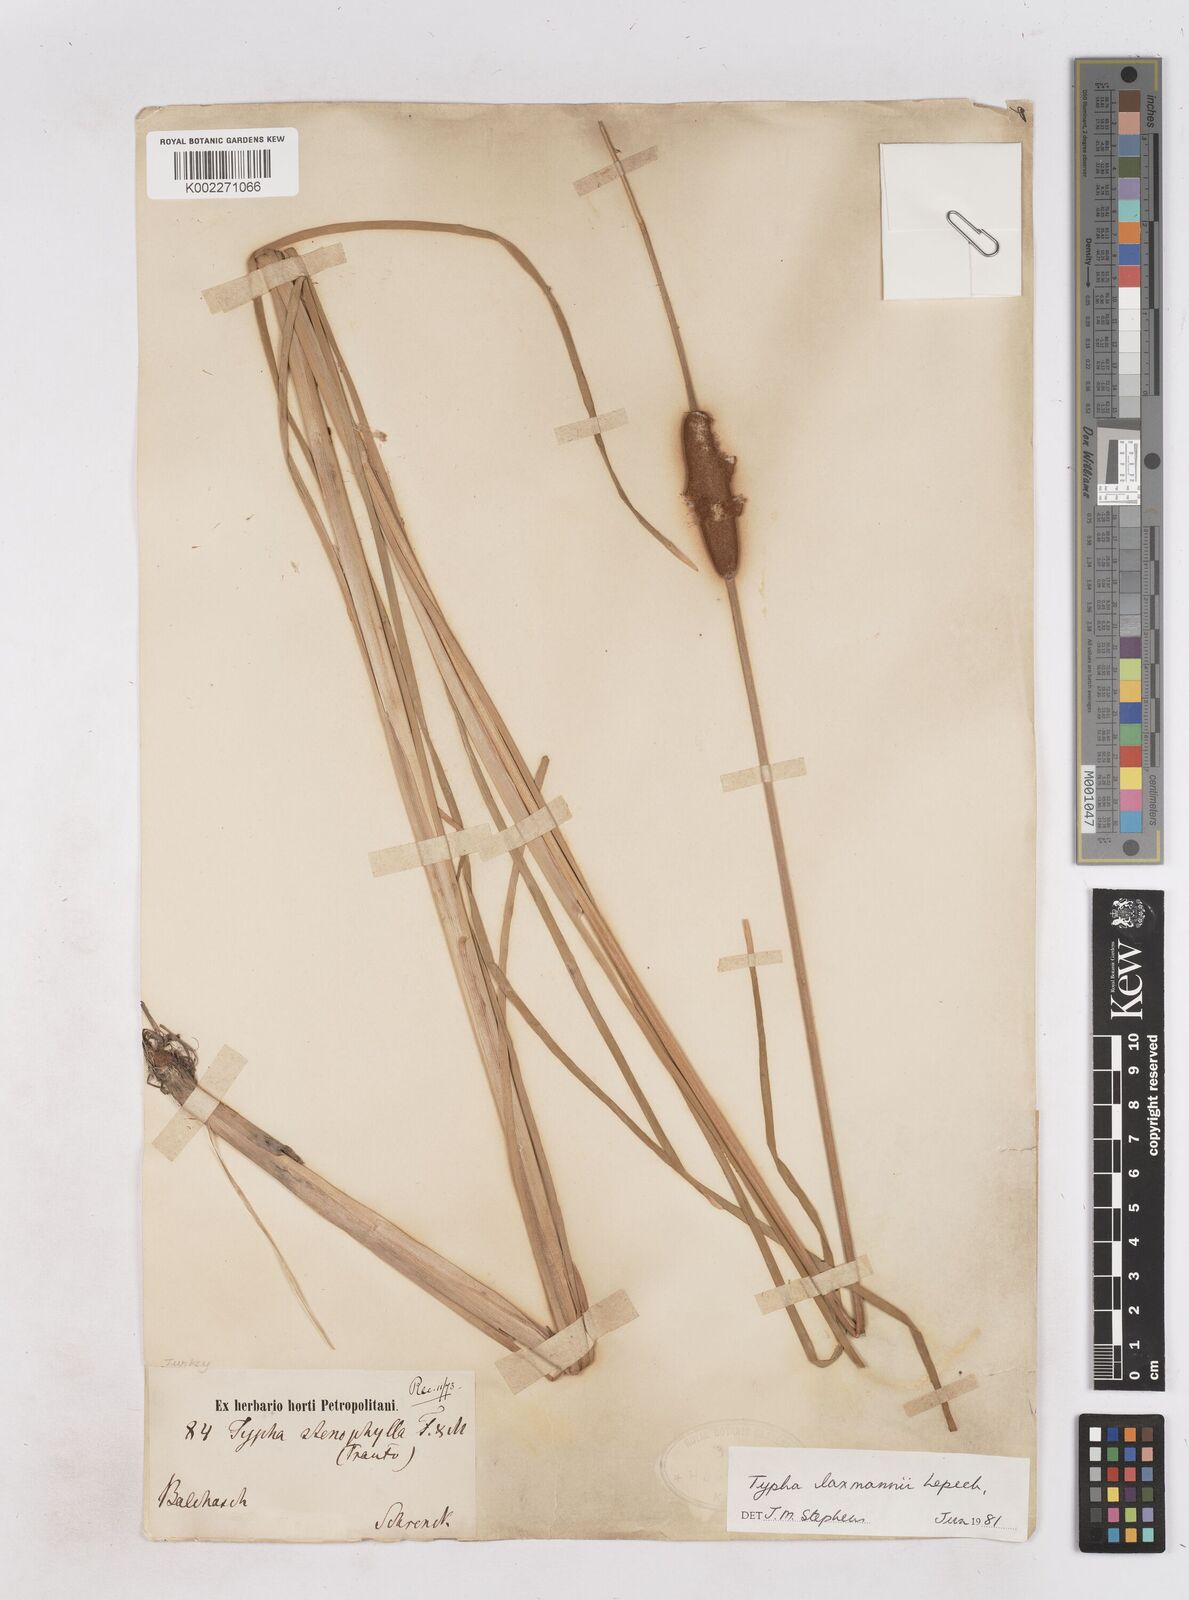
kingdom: Plantae
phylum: Tracheophyta
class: Liliopsida
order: Poales
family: Typhaceae
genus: Typha
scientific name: Typha laxmannii
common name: Laxman’s bulrush
